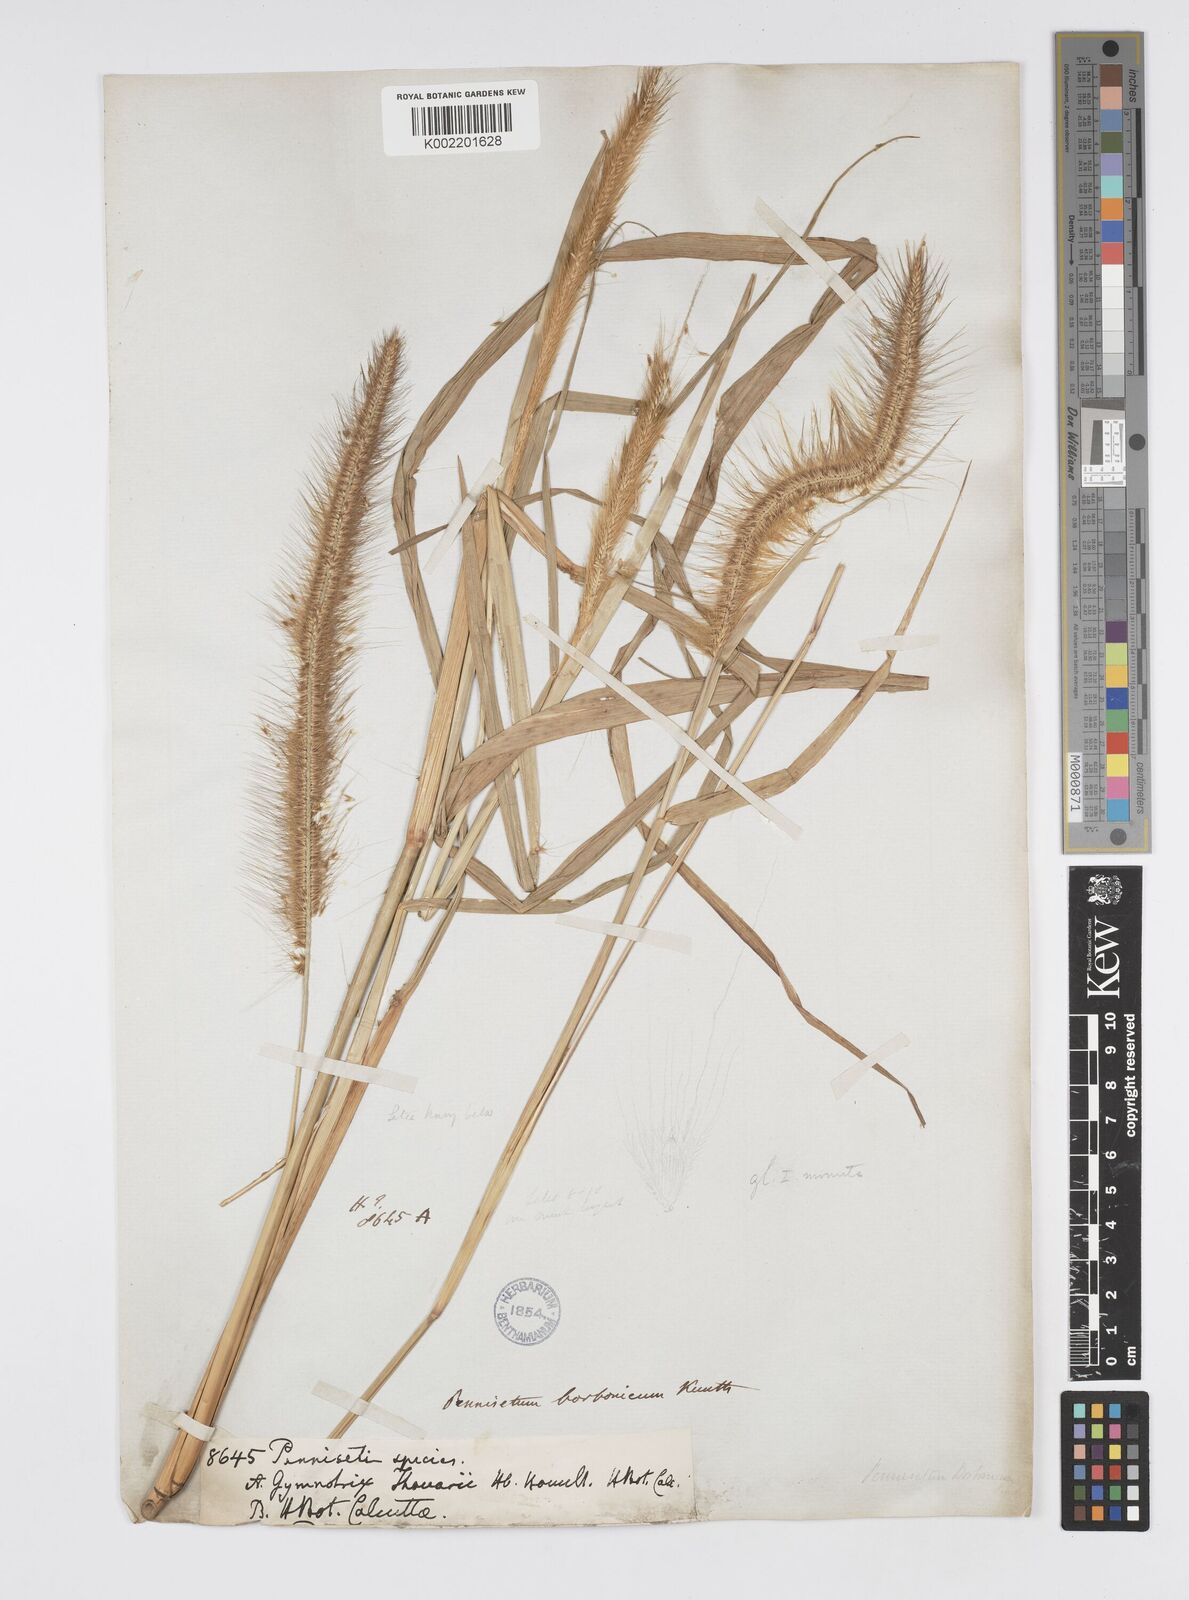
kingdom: Plantae
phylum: Tracheophyta
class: Liliopsida
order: Poales
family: Poaceae
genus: Setaria
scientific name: Setaria parviflora
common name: Knotroot bristle-grass
